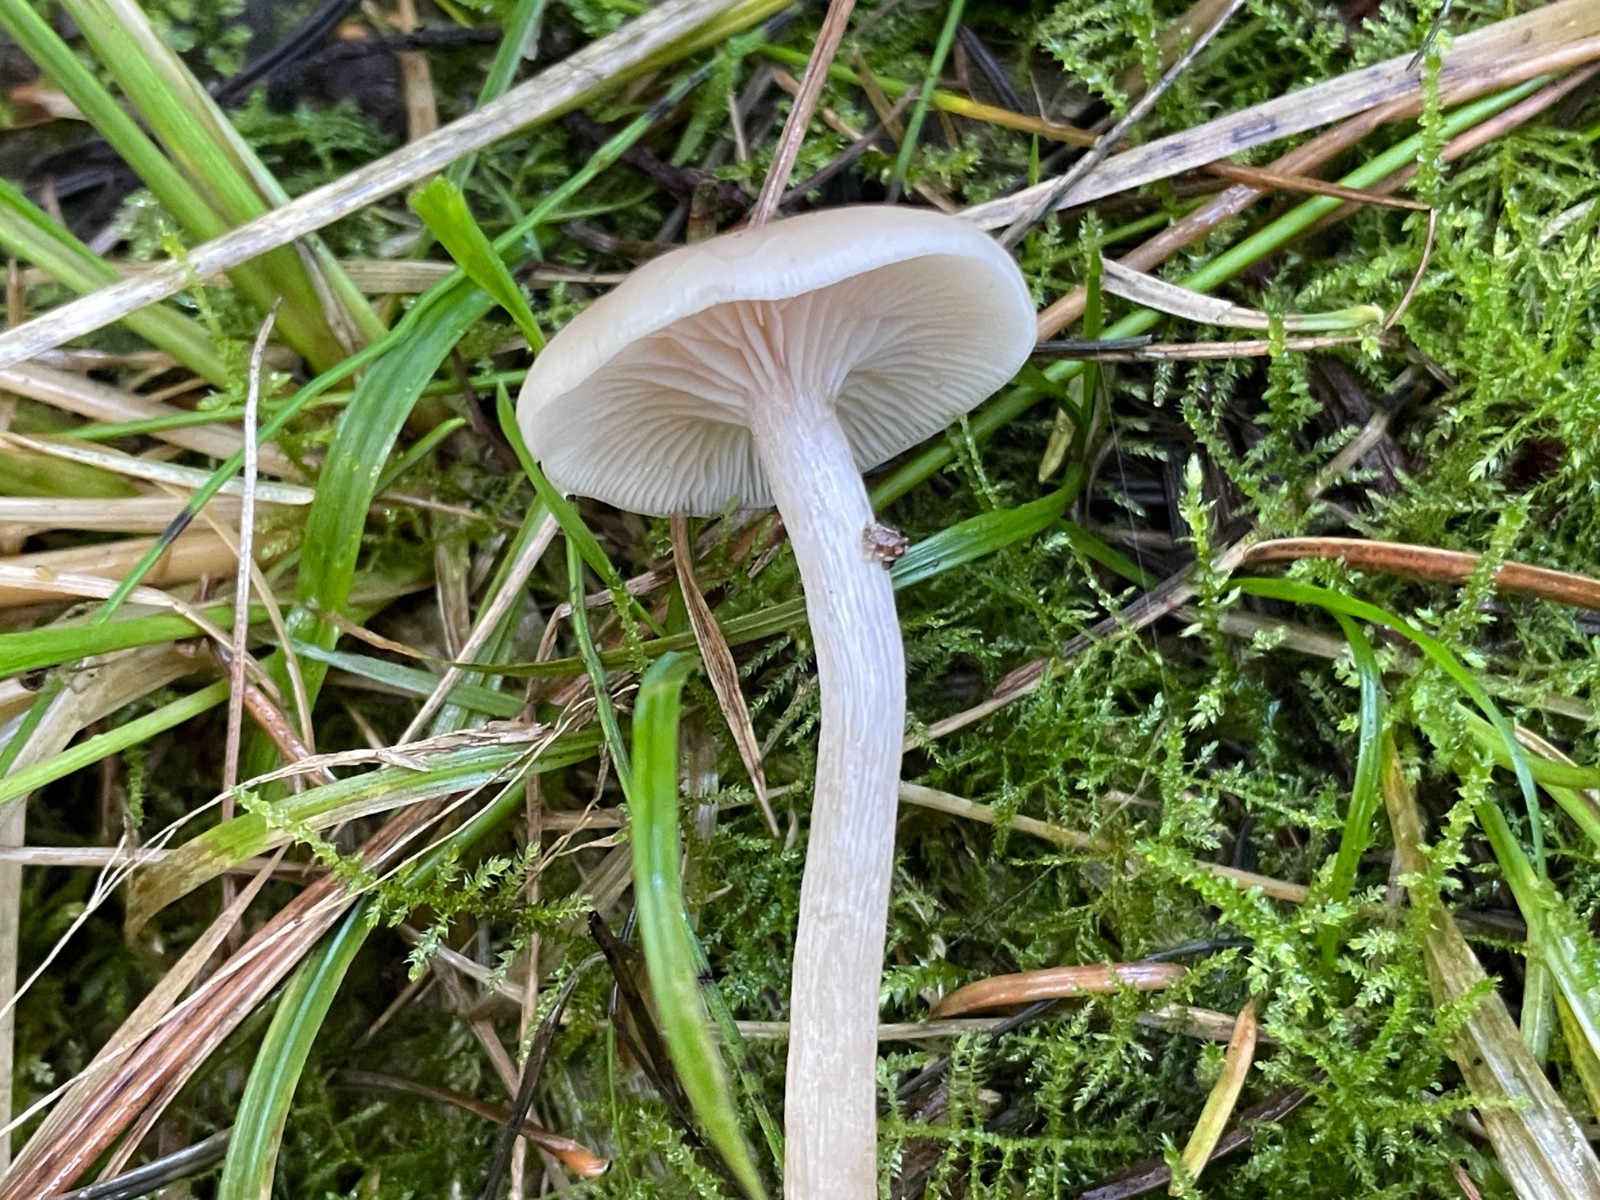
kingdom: Fungi
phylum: Basidiomycota
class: Agaricomycetes
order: Agaricales
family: Tricholomataceae
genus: Clitocybe
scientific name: Clitocybe fragrans
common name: vellugtende tragthat
